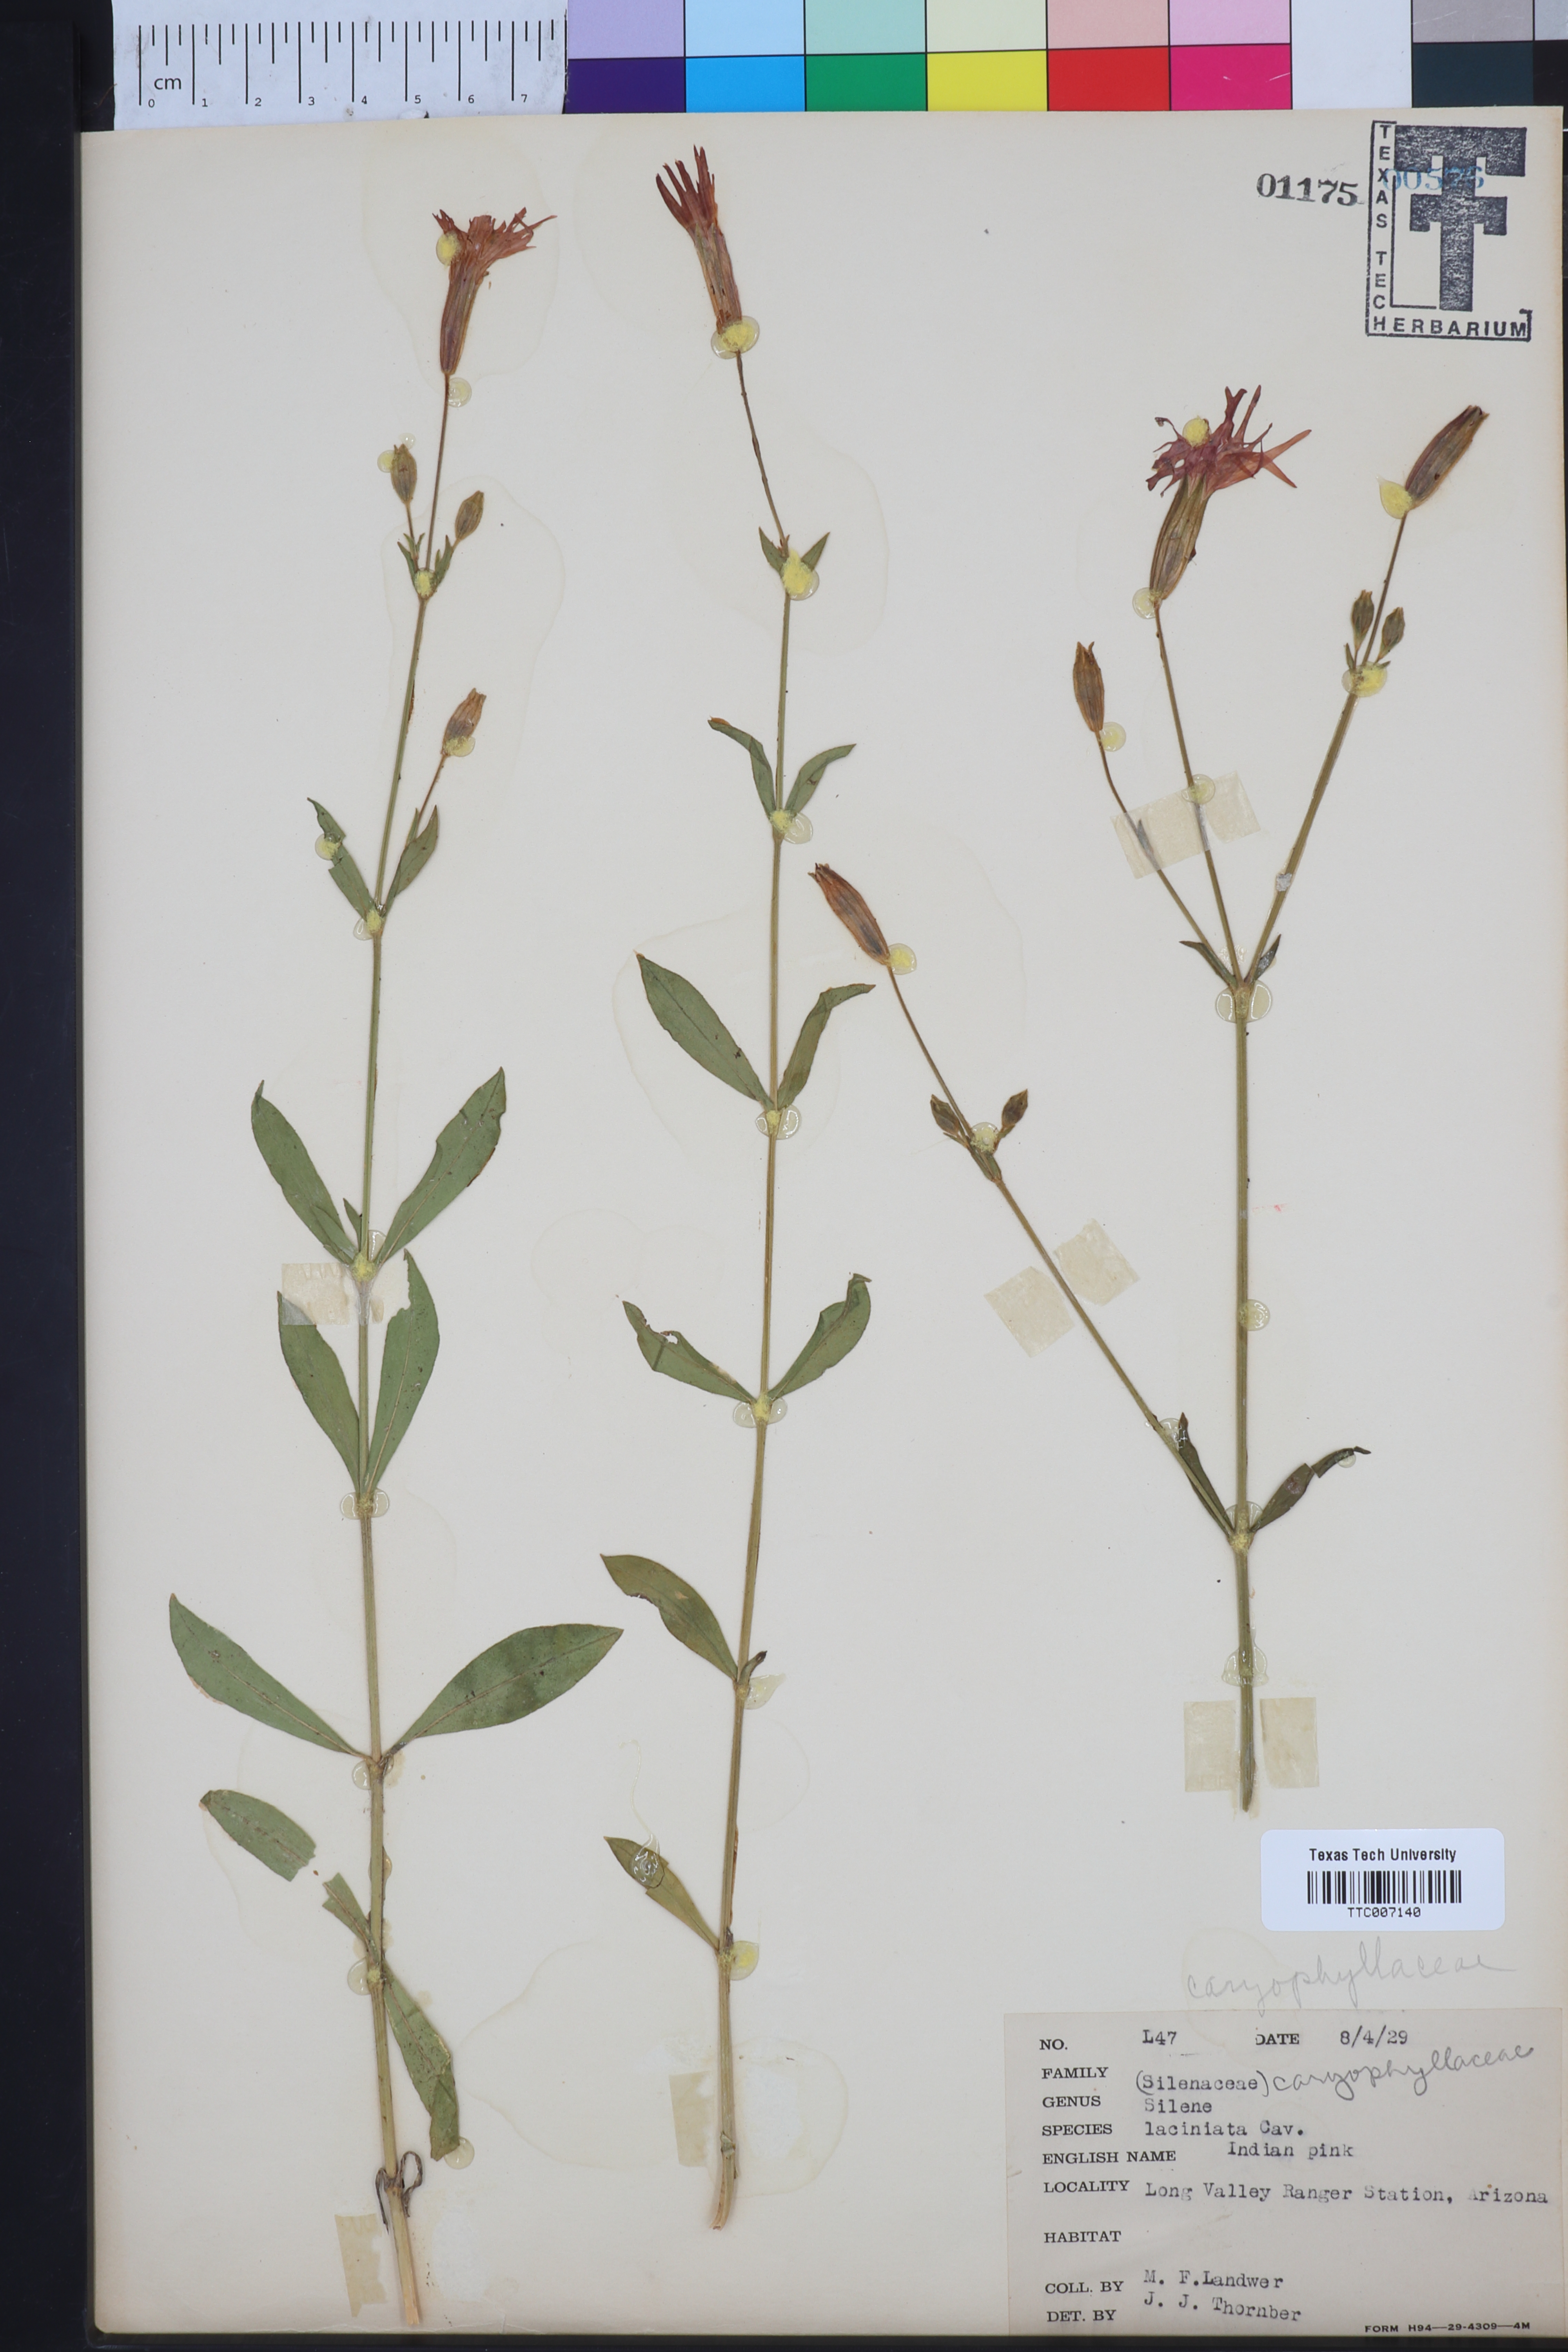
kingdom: Plantae
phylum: Tracheophyta
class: Magnoliopsida
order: Caryophyllales
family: Caryophyllaceae
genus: Silene
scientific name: Silene laciniata
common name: Indian-pink
